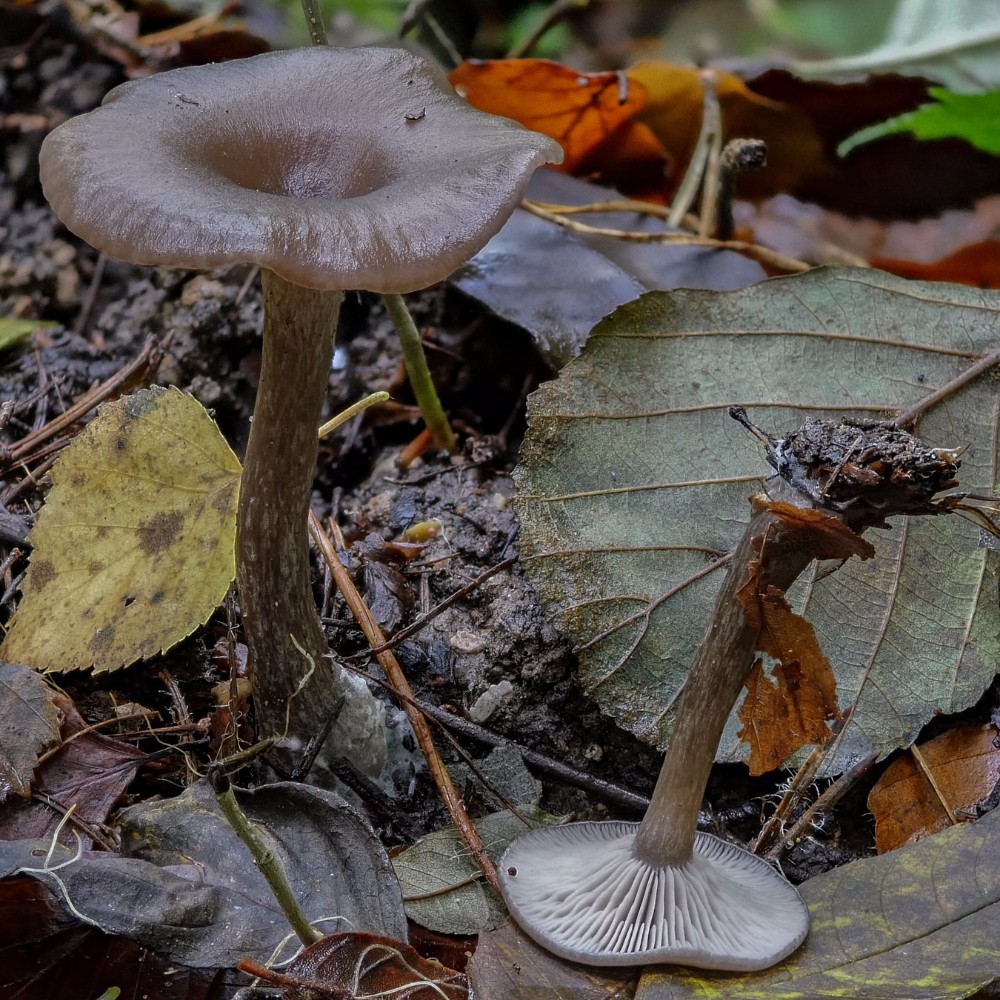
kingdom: Fungi
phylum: Basidiomycota
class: Agaricomycetes
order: Agaricales
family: Pseudoclitocybaceae
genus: Pseudoclitocybe
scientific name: Pseudoclitocybe cyathiformis
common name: almindelig bægertragthat
